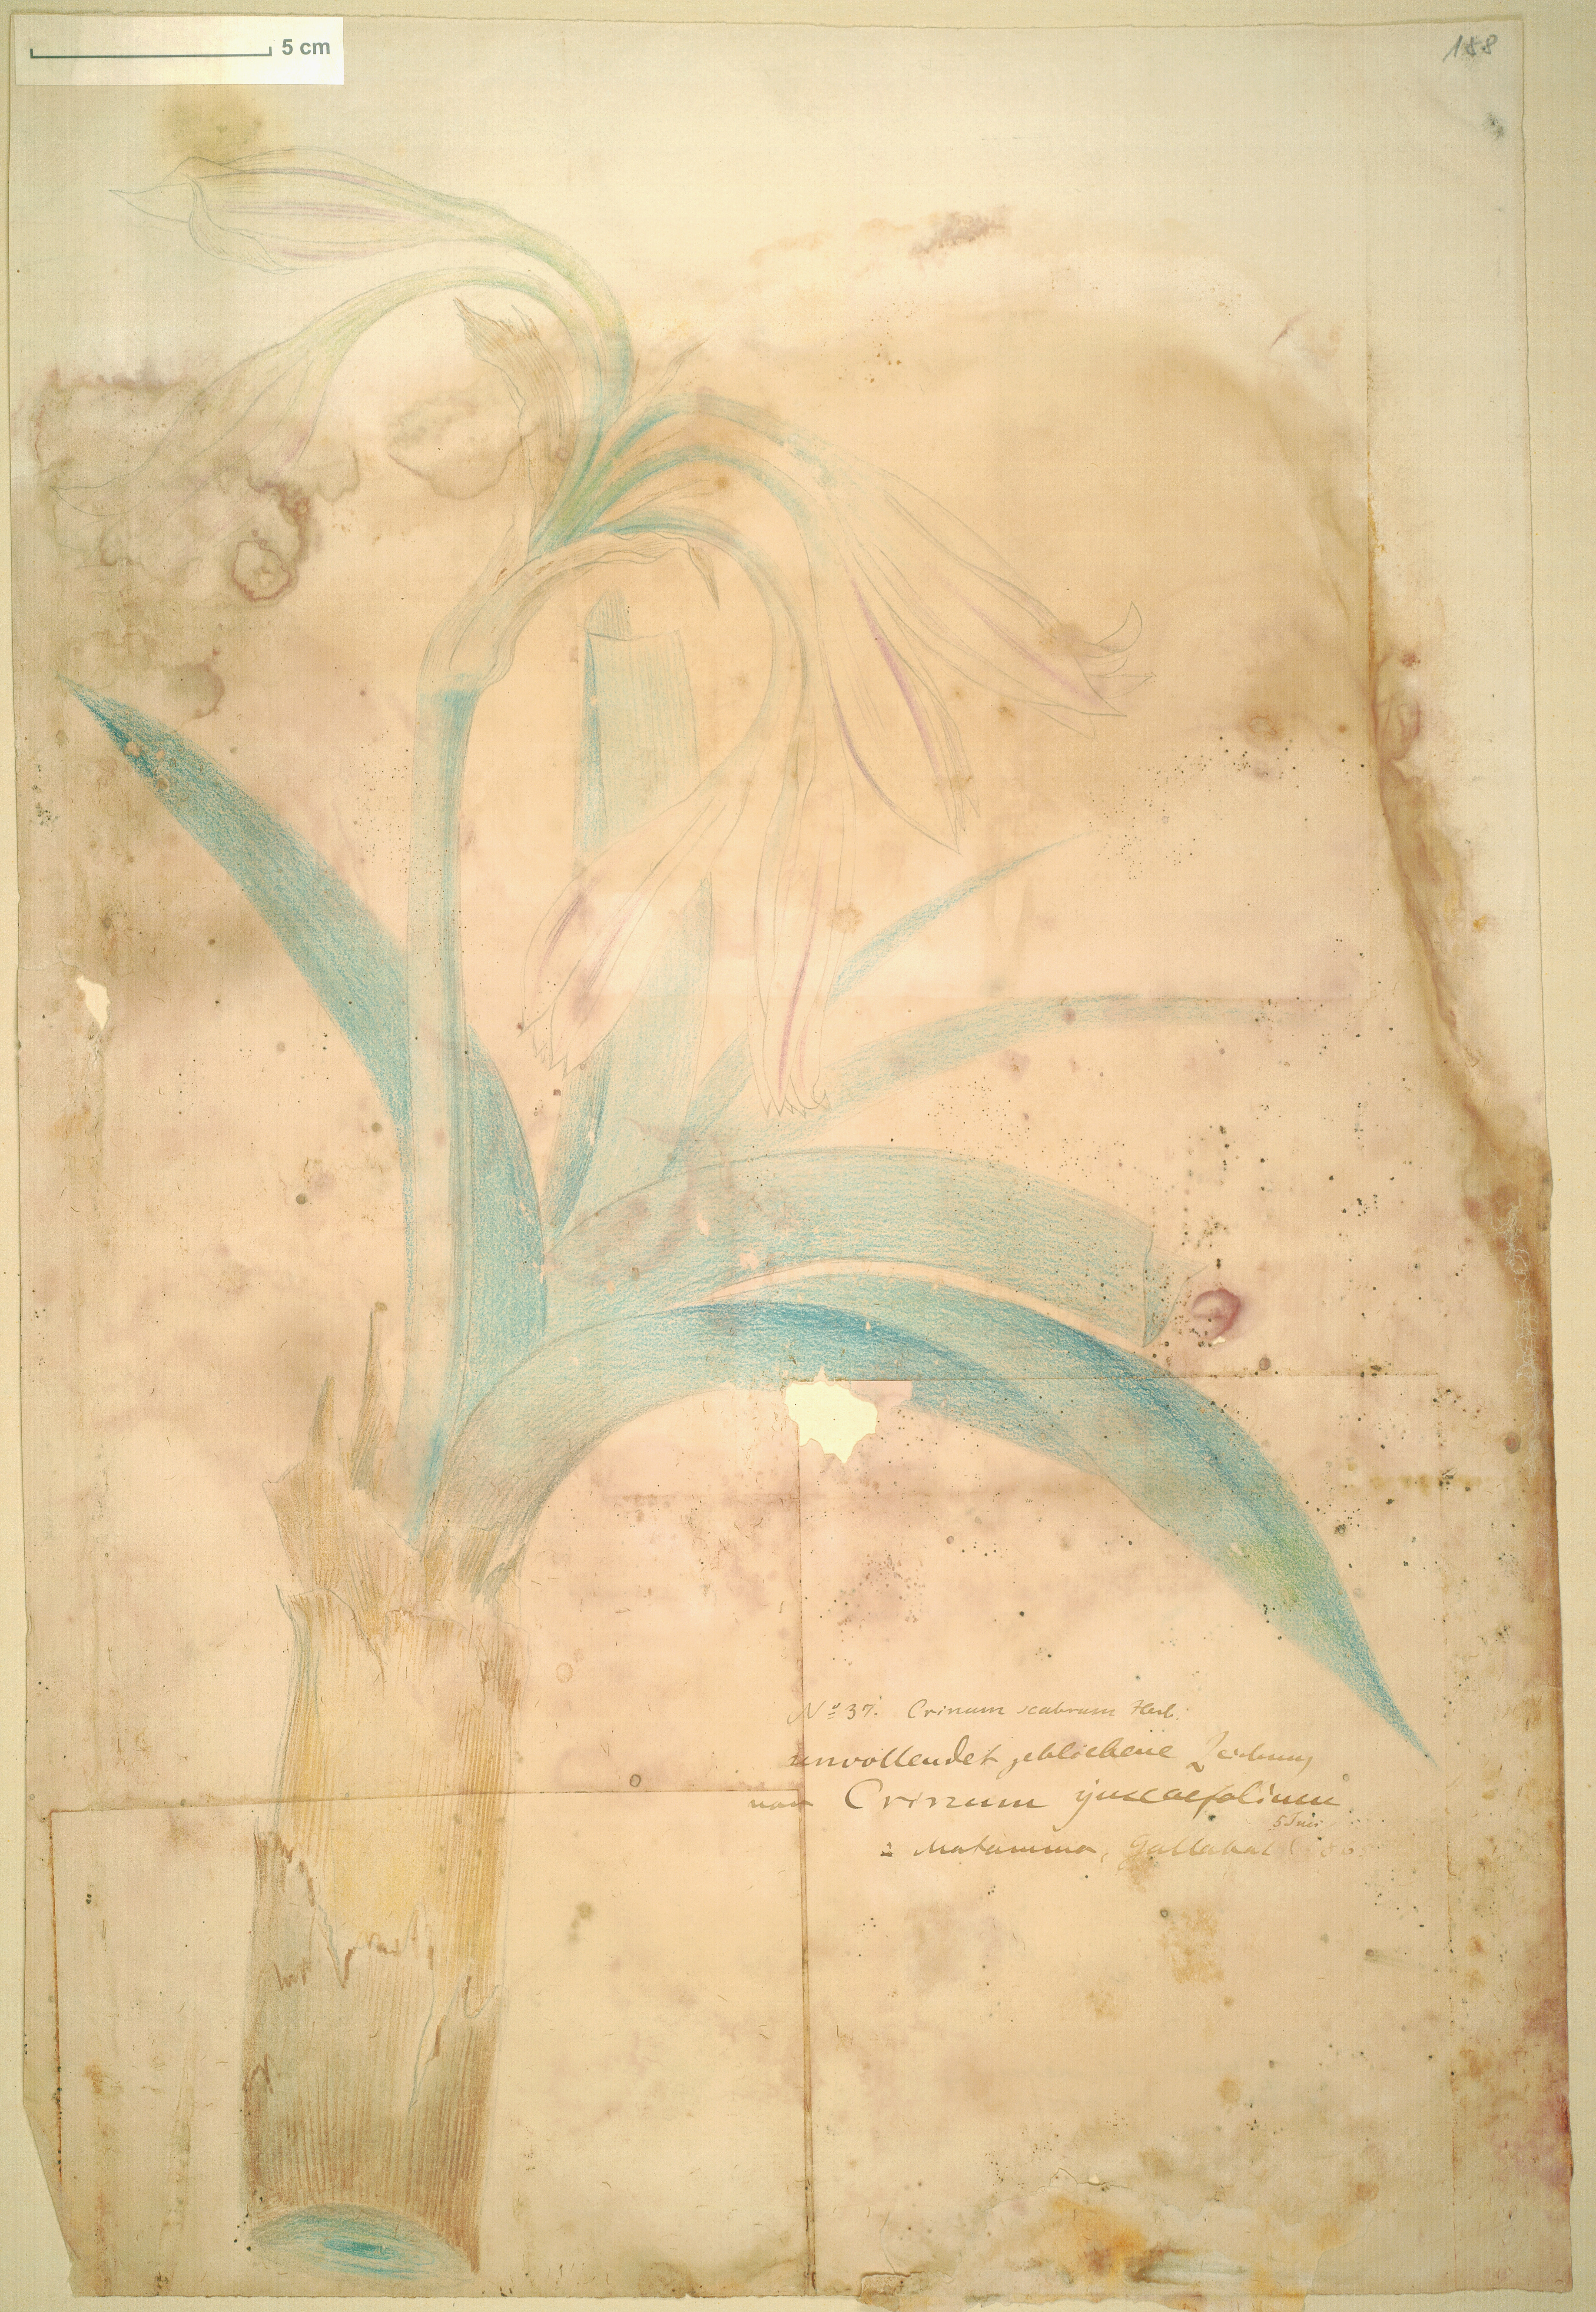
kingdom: Plantae
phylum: Tracheophyta
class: Liliopsida
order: Asparagales
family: Amaryllidaceae
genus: Crinum
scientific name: Crinum zeylanicum
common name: Ceylon swamplily
